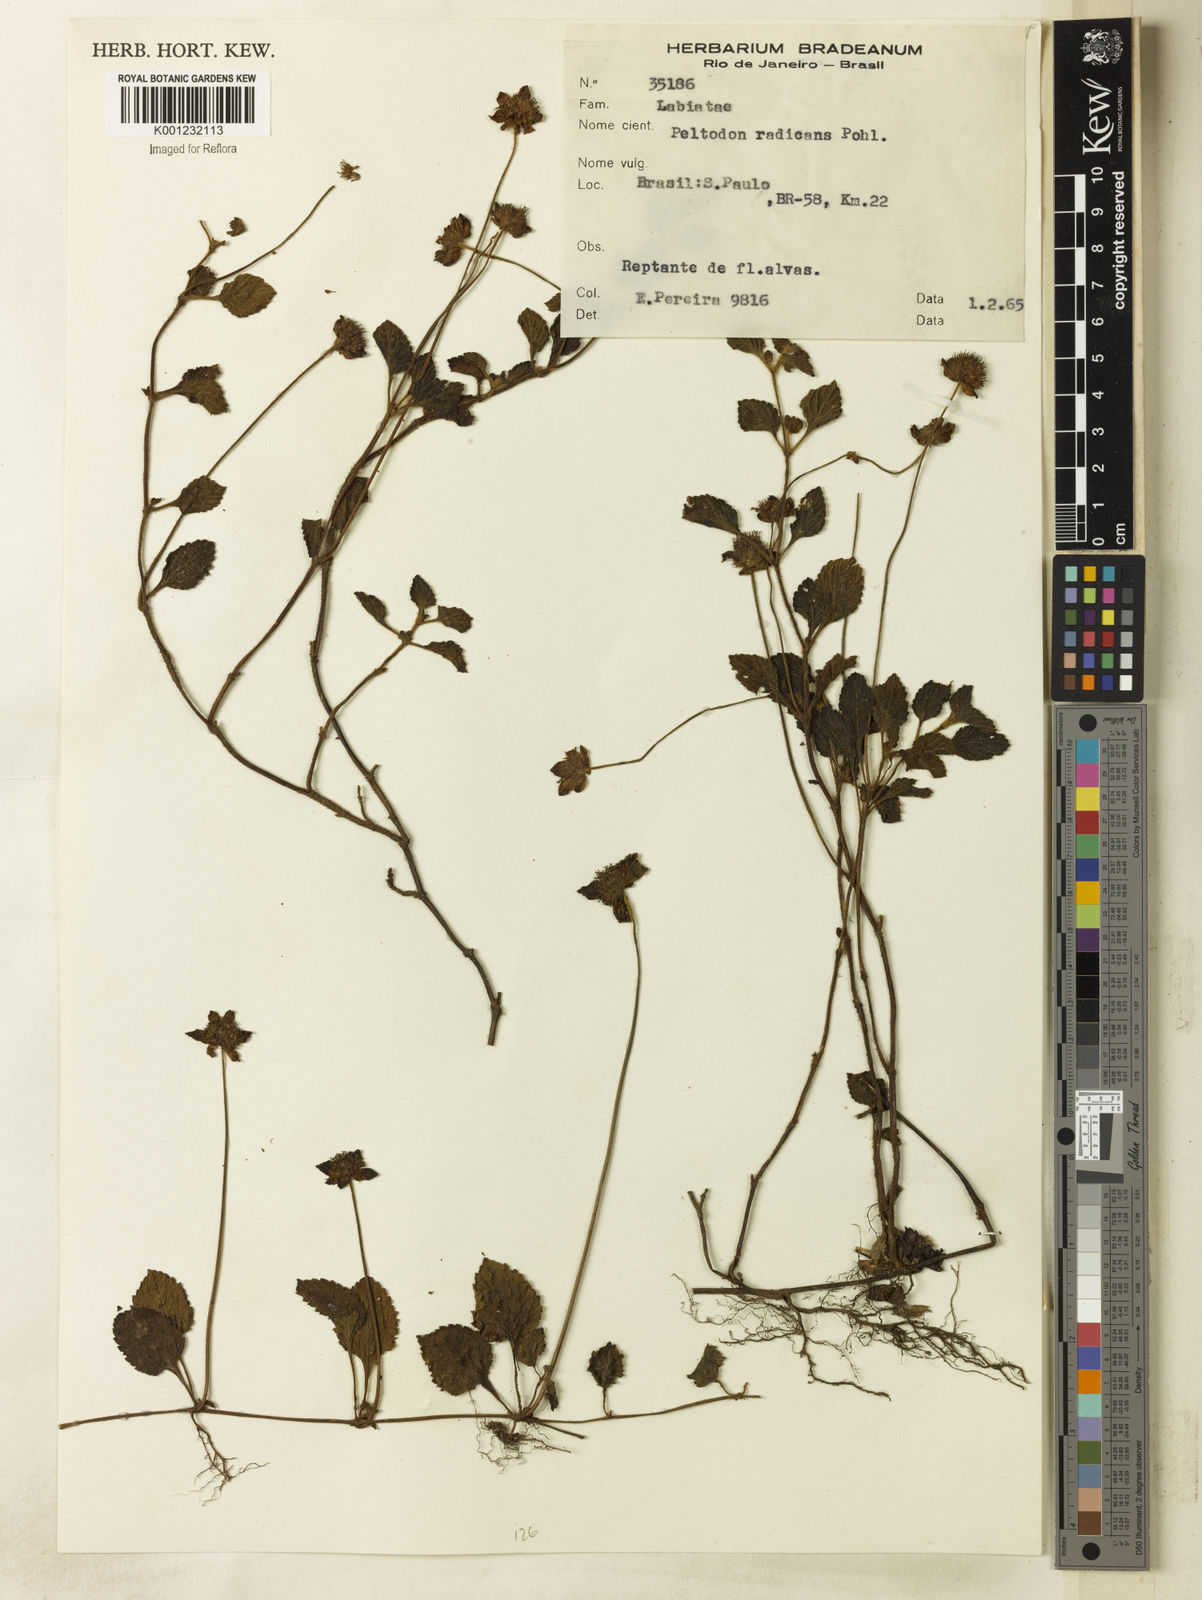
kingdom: Plantae
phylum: Tracheophyta
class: Magnoliopsida
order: Lamiales
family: Lamiaceae
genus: Hyptis
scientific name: Hyptis radicans
